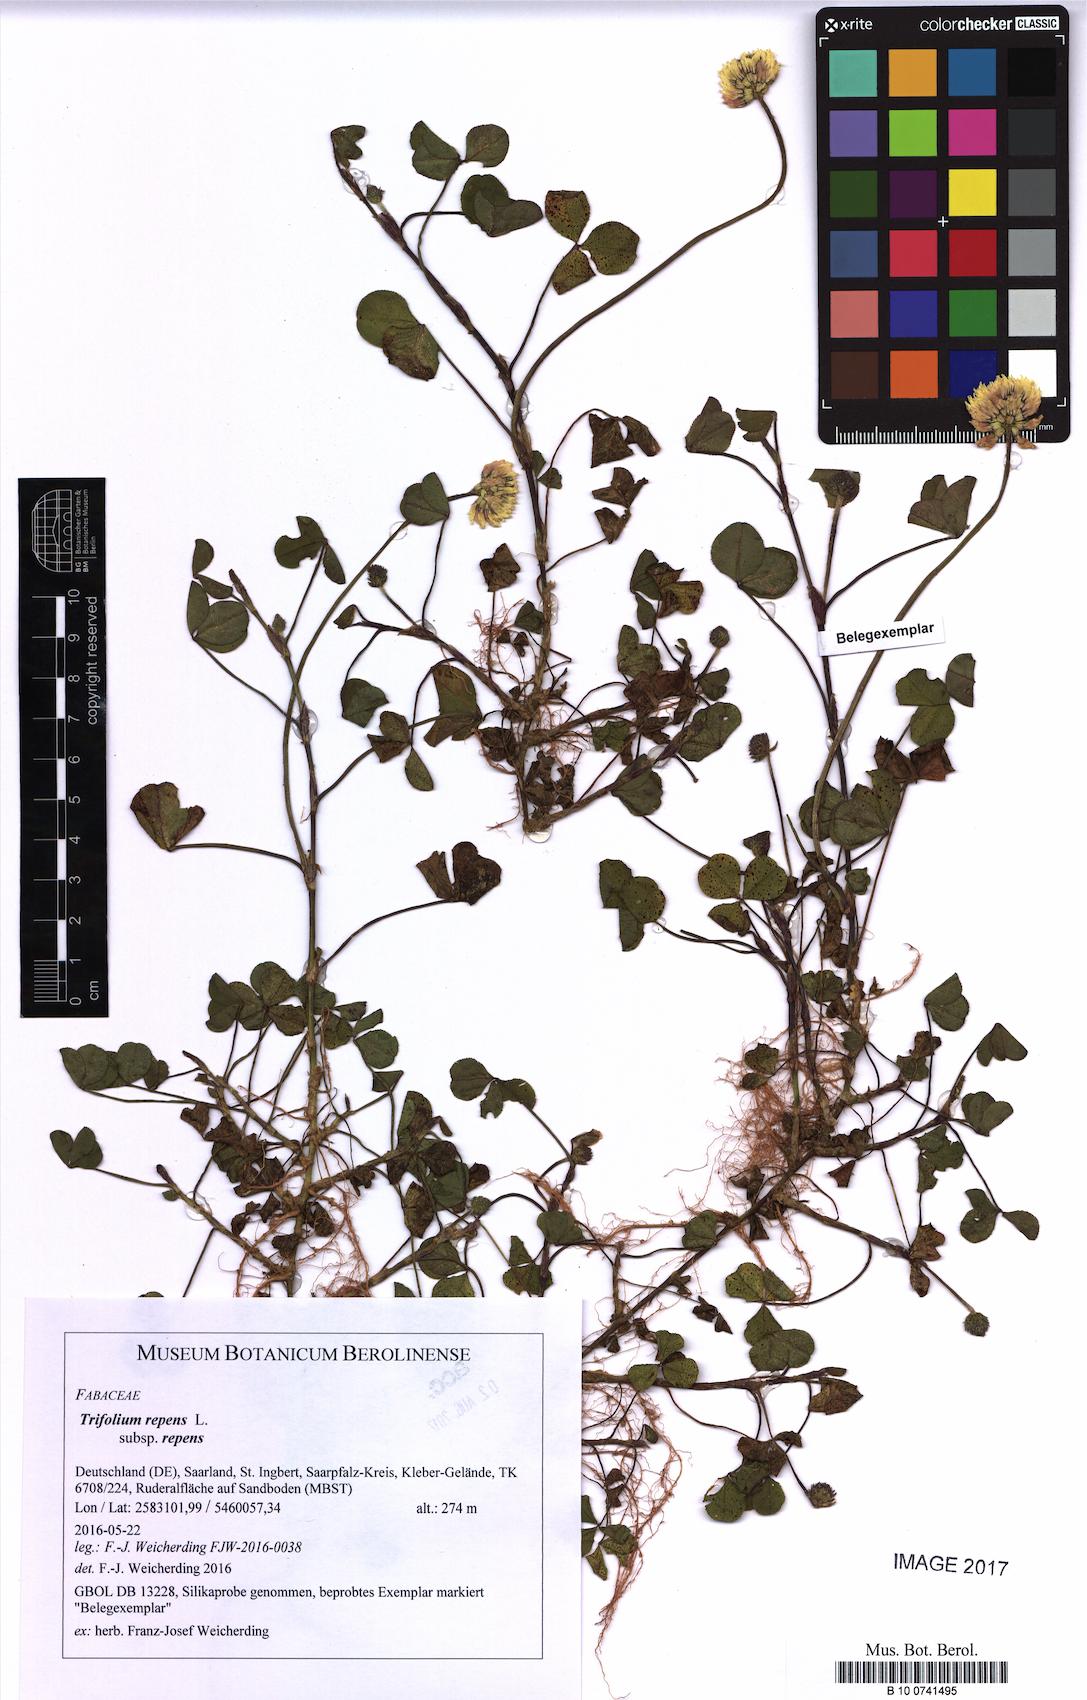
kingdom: Plantae
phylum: Tracheophyta
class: Magnoliopsida
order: Fabales
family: Fabaceae
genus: Trifolium
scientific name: Trifolium repens
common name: White clover
